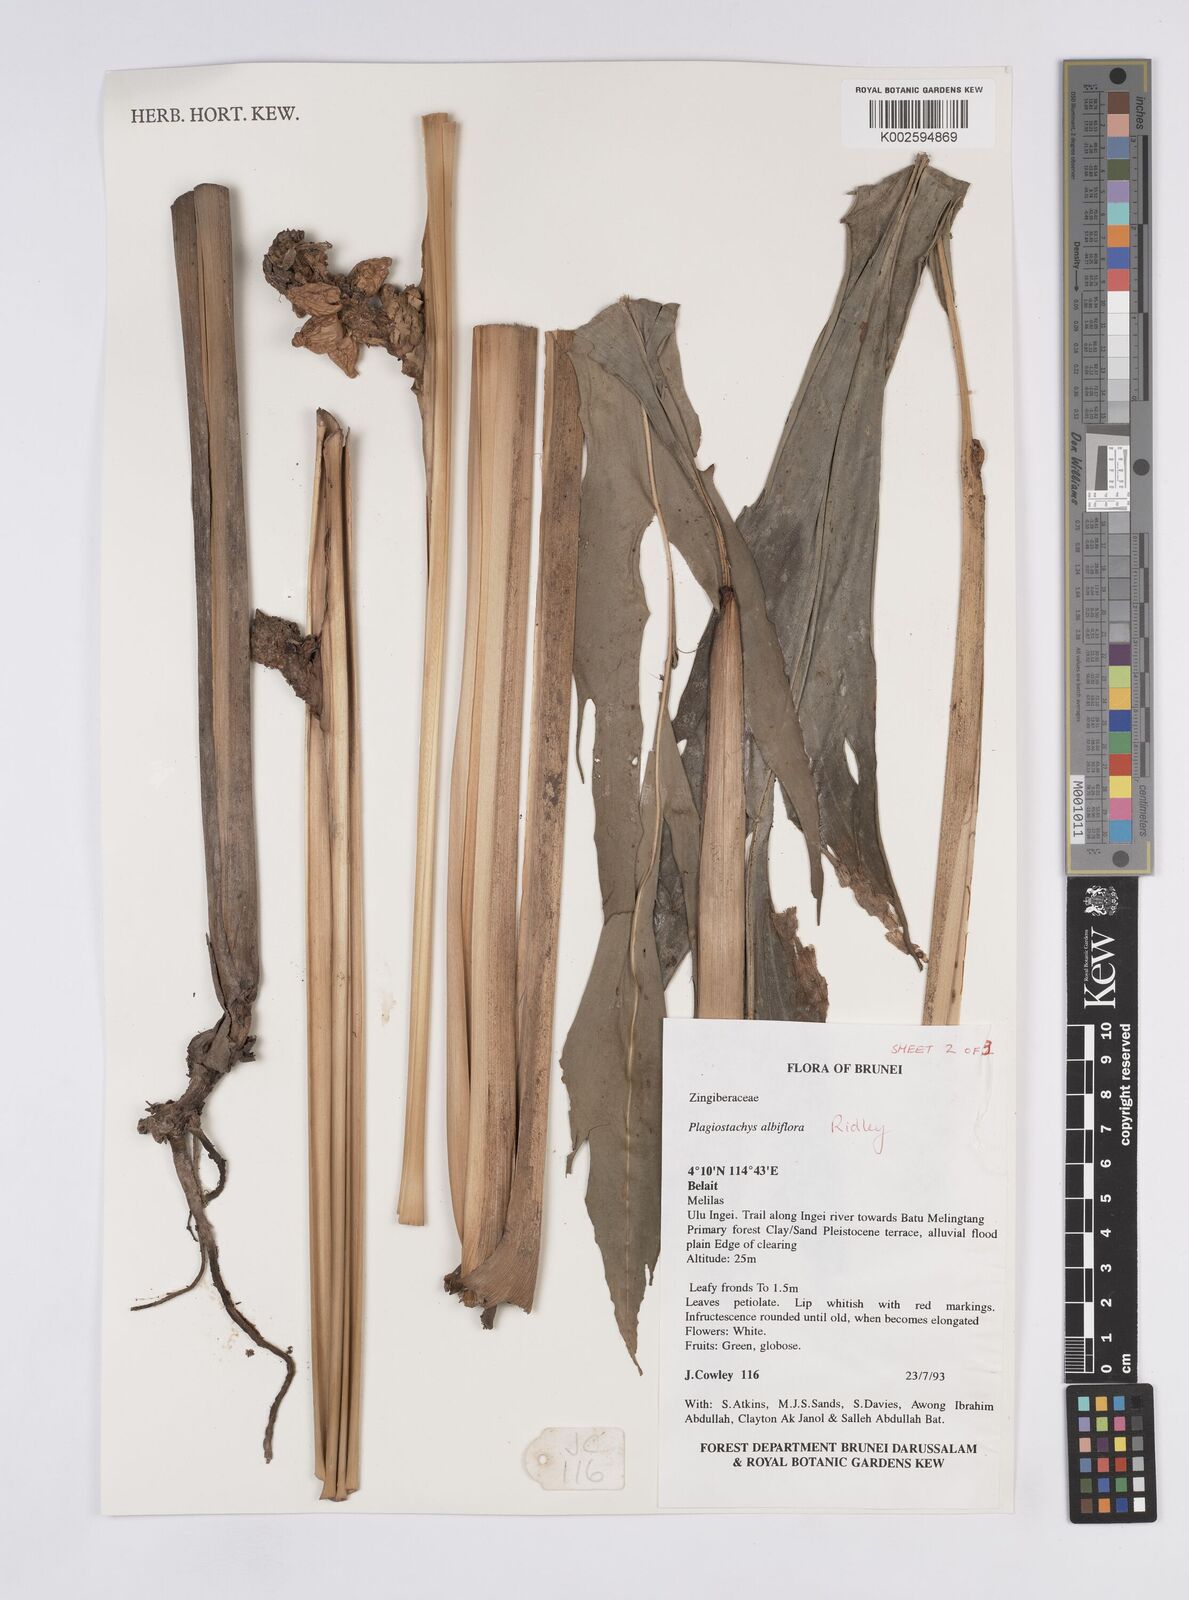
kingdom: Plantae
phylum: Tracheophyta
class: Liliopsida
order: Zingiberales
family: Zingiberaceae
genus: Plagiostachys
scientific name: Plagiostachys albiflora
